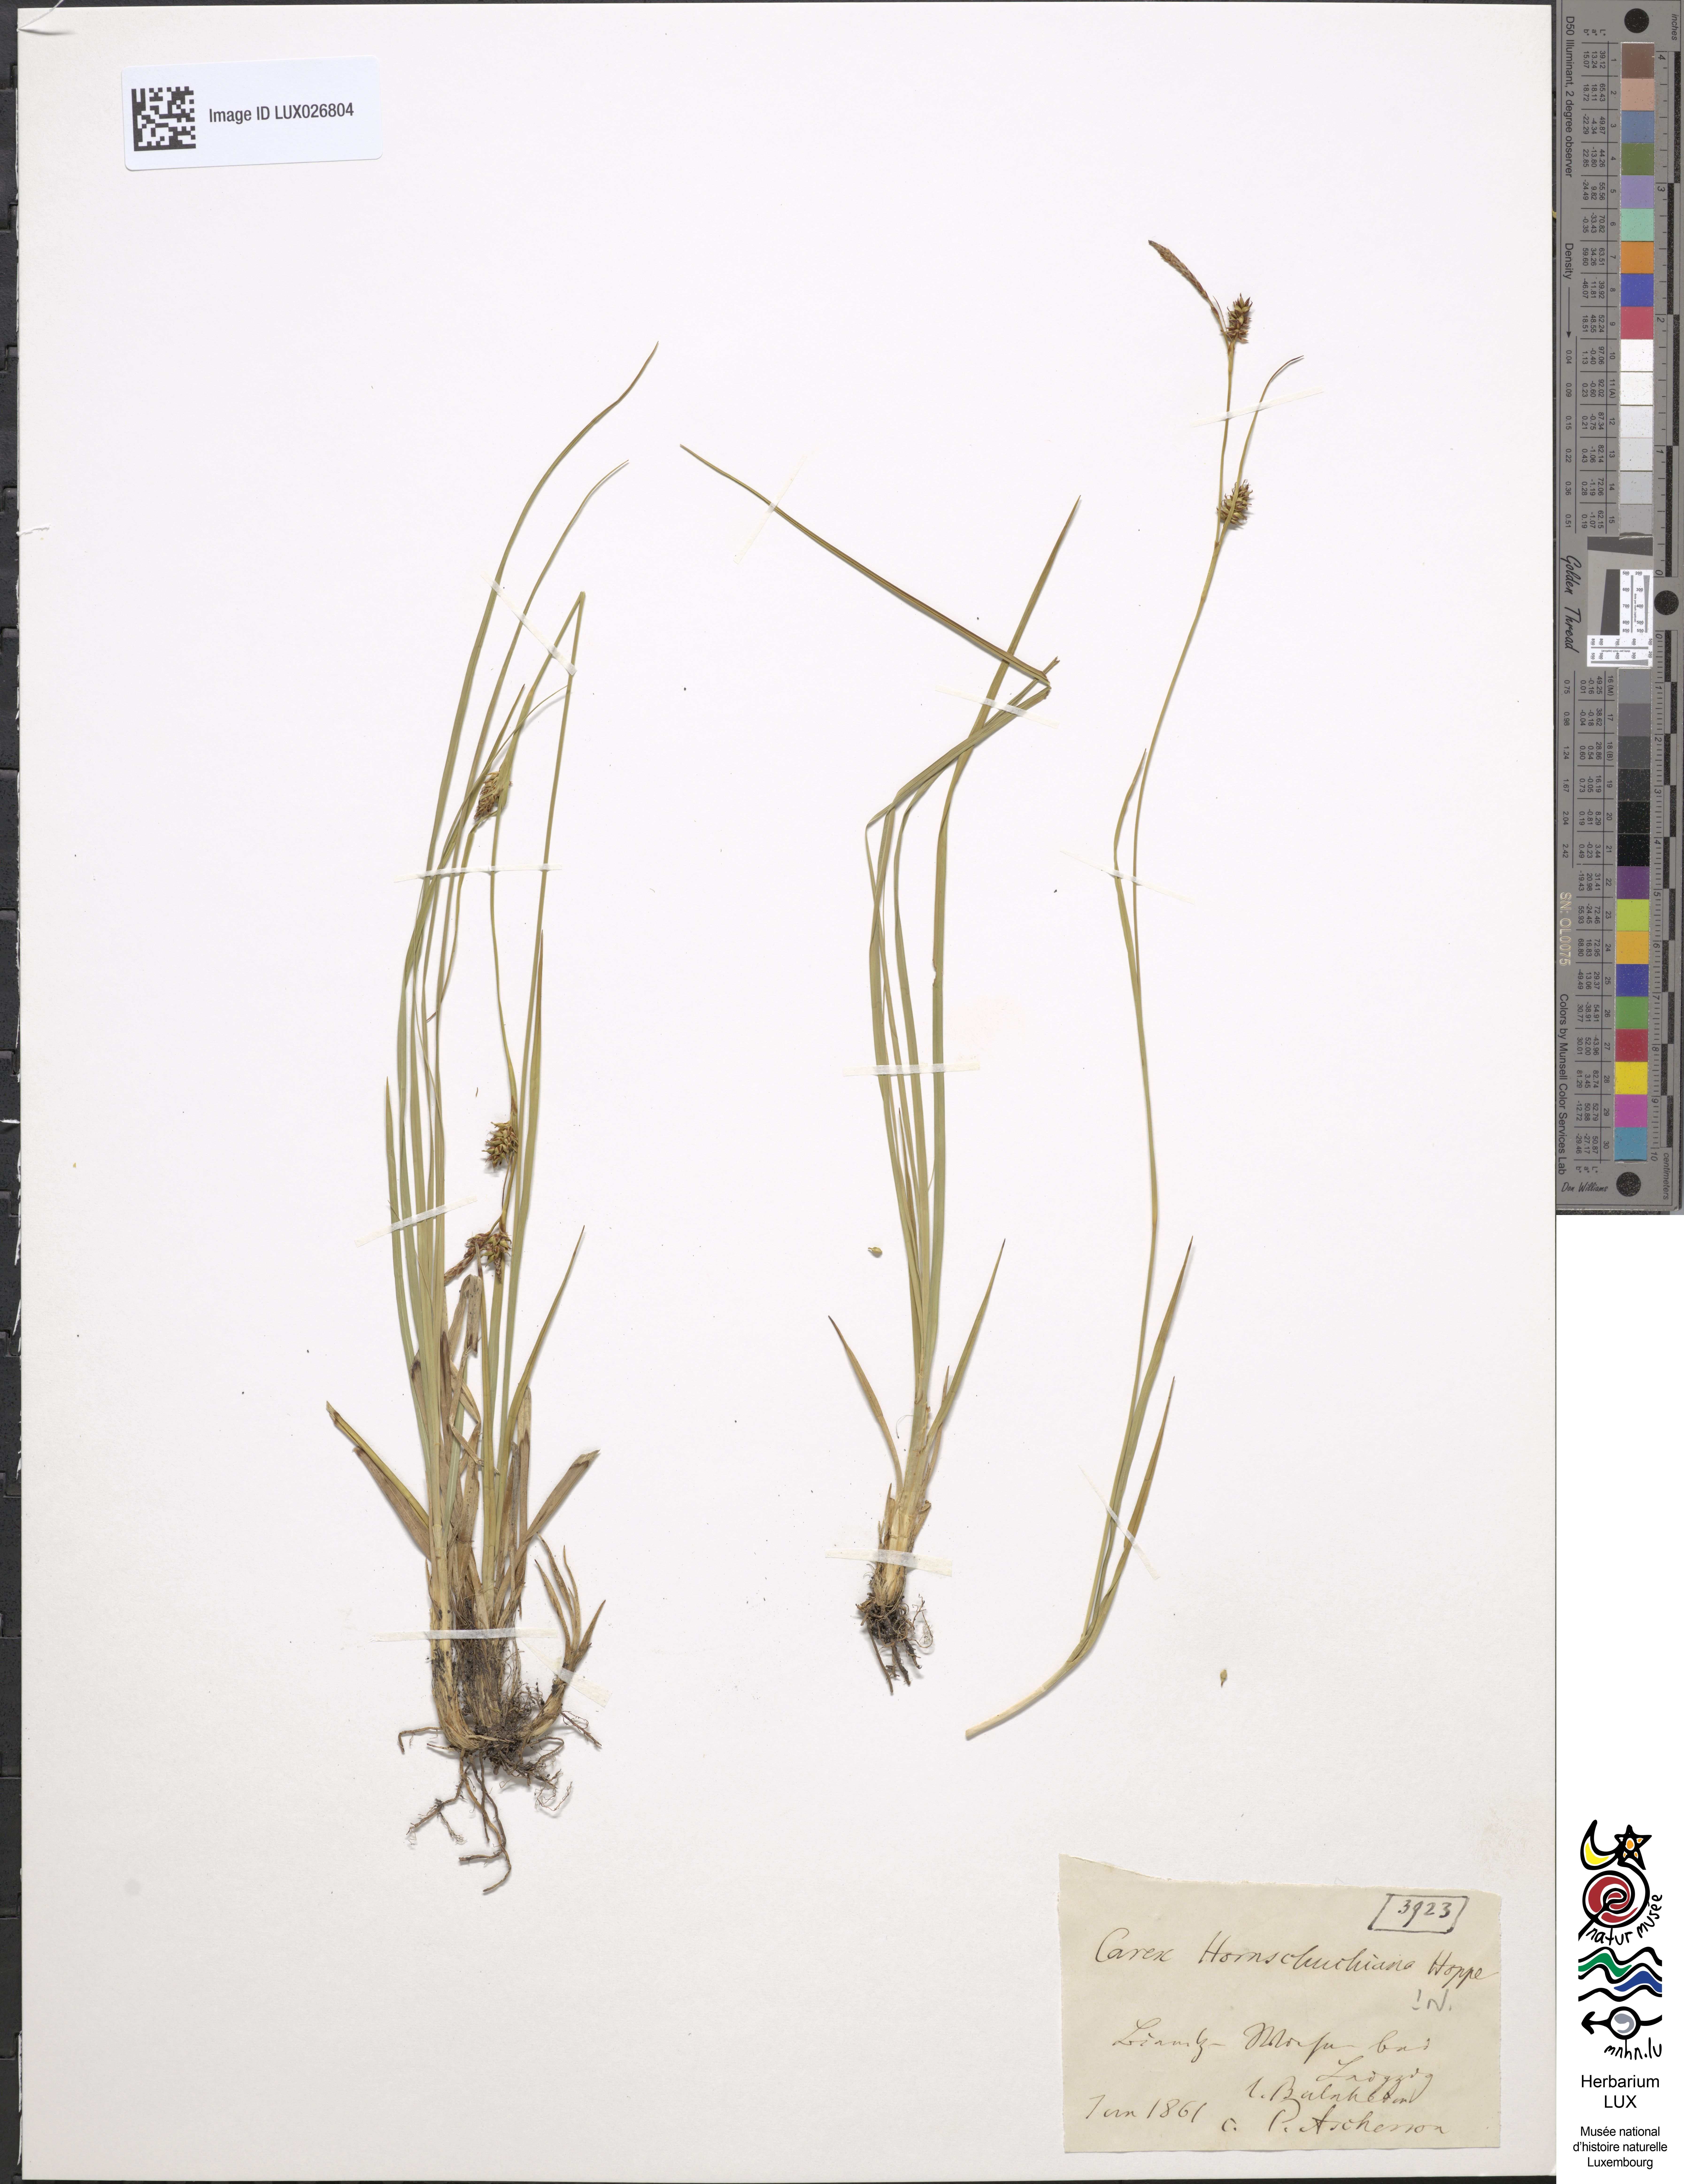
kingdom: Plantae
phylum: Tracheophyta
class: Liliopsida
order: Poales
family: Cyperaceae
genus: Carex
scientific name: Carex hostiana
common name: Tawny sedge
